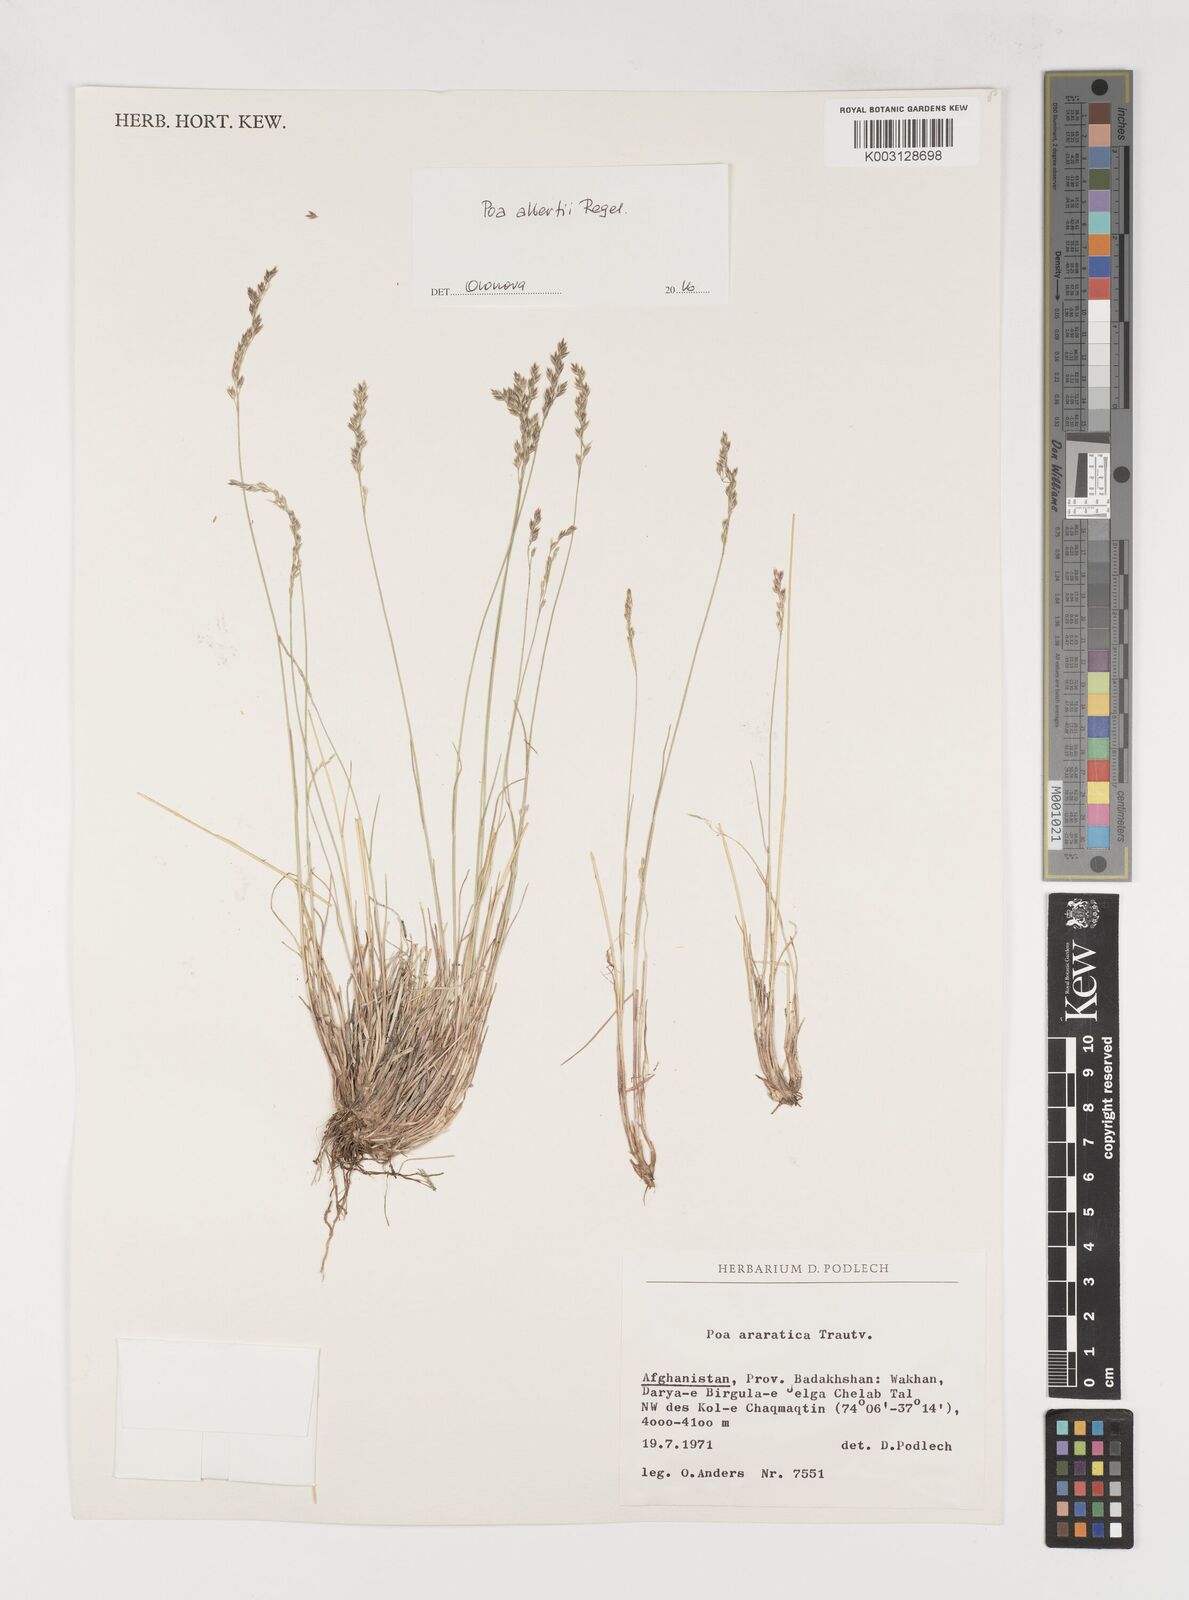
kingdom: Plantae
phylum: Tracheophyta
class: Liliopsida
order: Poales
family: Poaceae
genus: Poa
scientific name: Poa araratica
